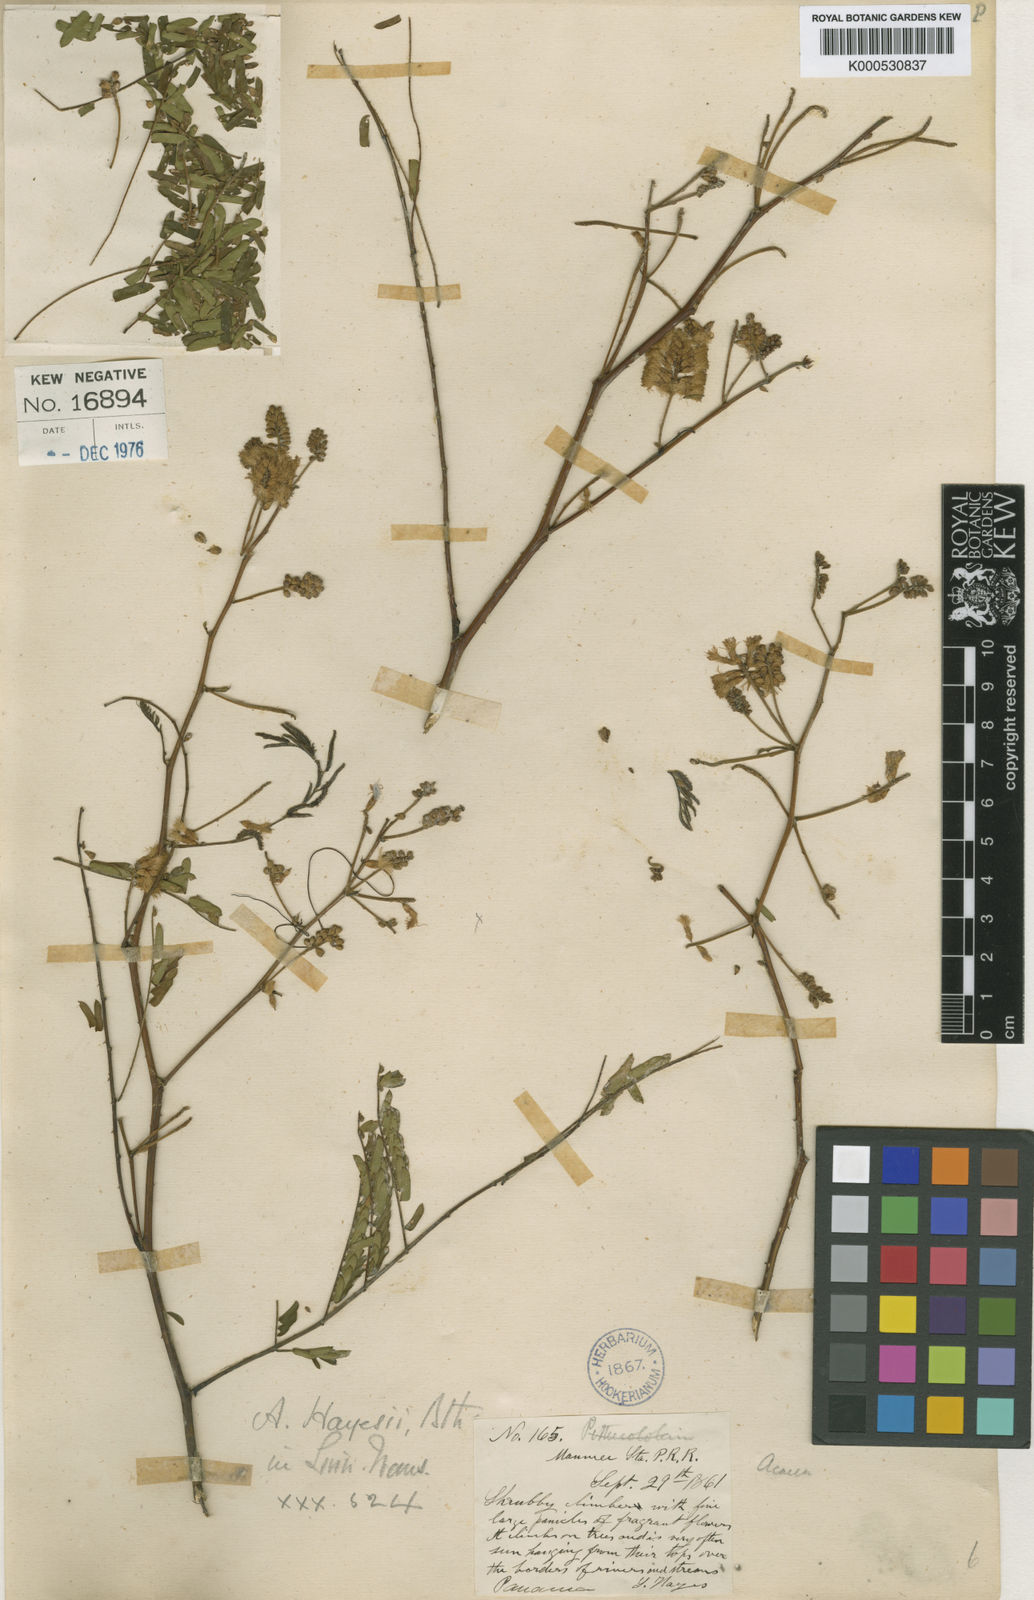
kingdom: Plantae
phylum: Tracheophyta
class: Magnoliopsida
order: Fabales
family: Fabaceae
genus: Senegalia
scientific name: Senegalia hayesii
